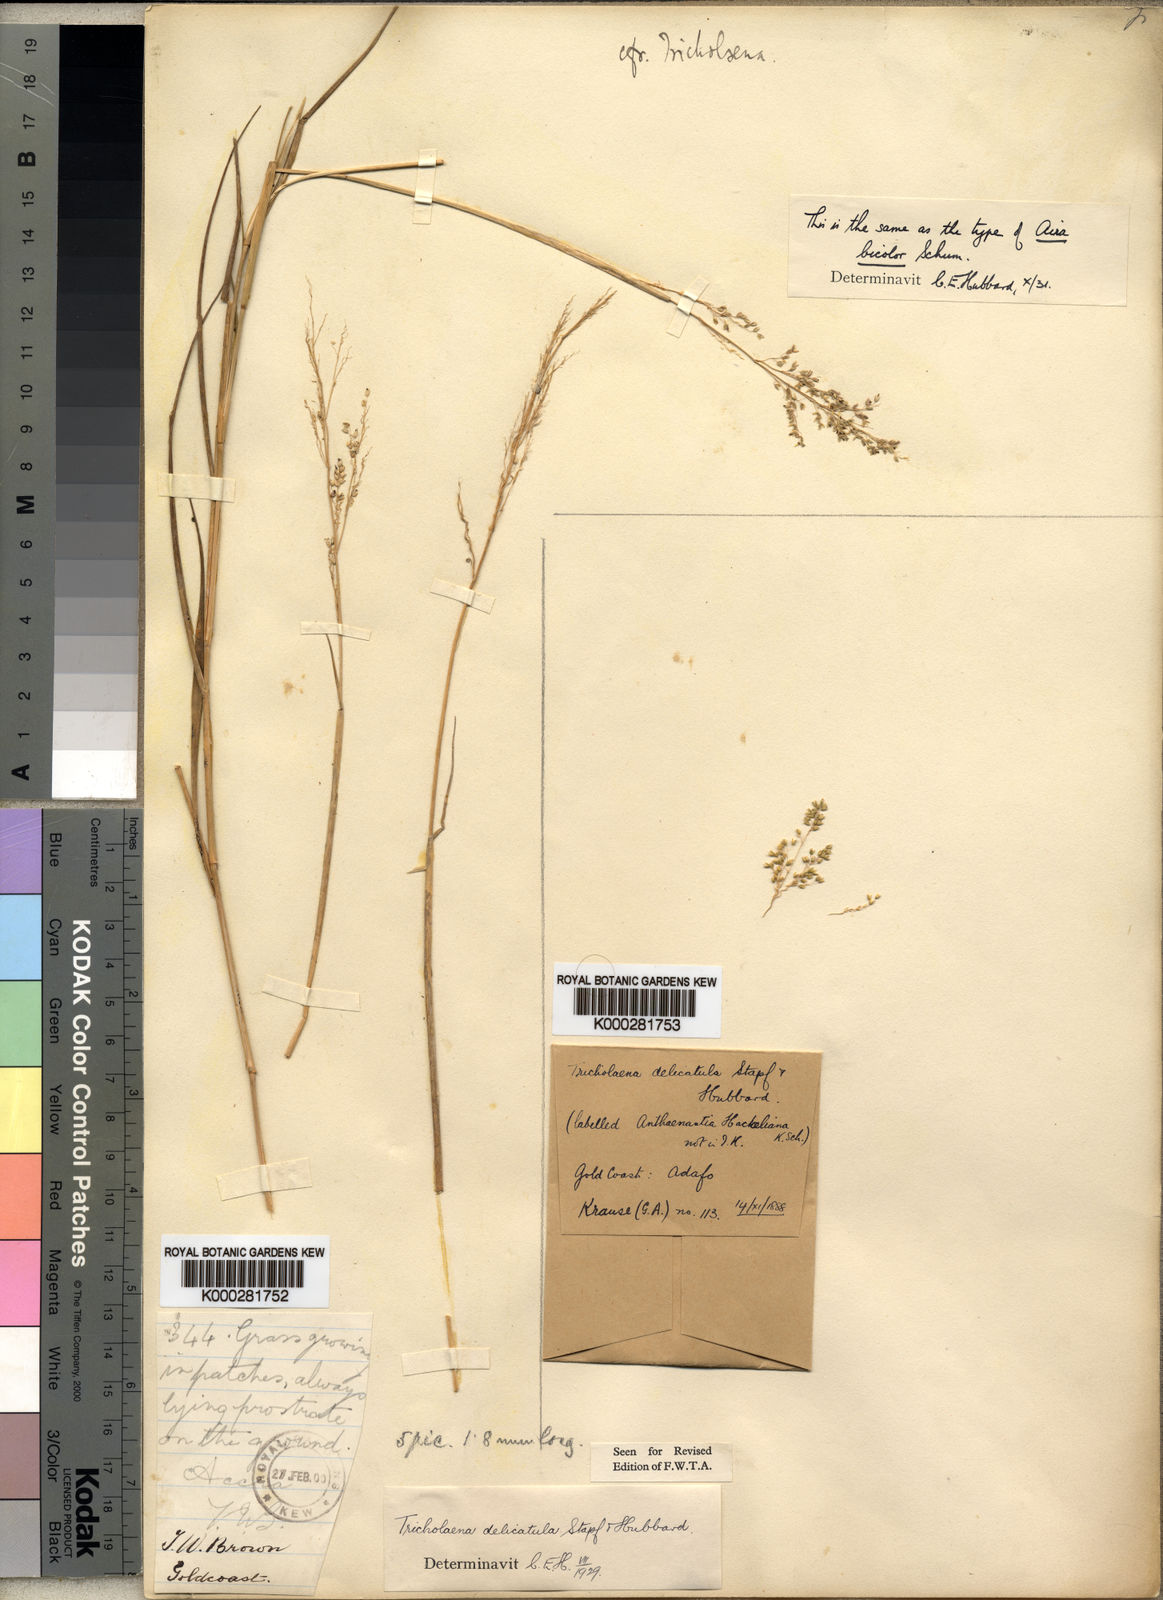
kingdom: Plantae
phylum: Tracheophyta
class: Liliopsida
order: Poales
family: Poaceae
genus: Tricholaena
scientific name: Tricholaena monachne
